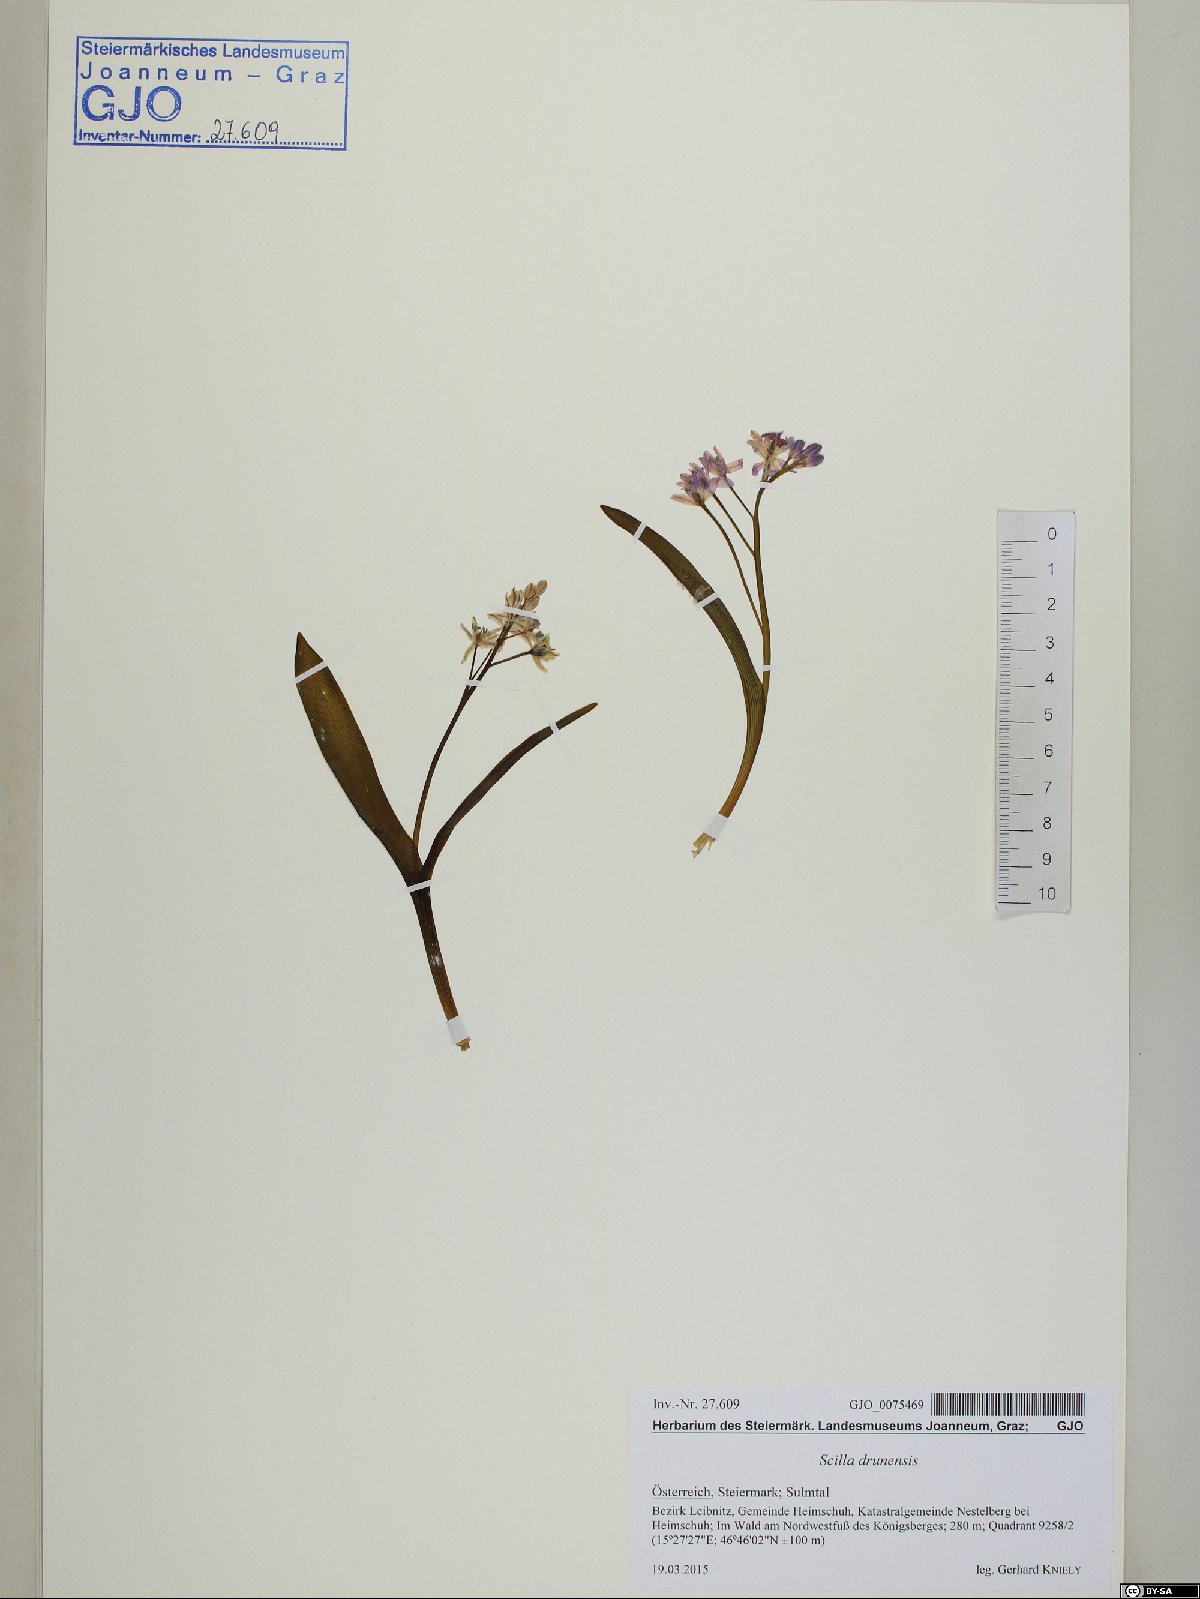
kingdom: Plantae
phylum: Tracheophyta
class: Liliopsida
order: Asparagales
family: Asparagaceae
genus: Scilla
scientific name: Scilla bifolia
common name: Alpine squill
